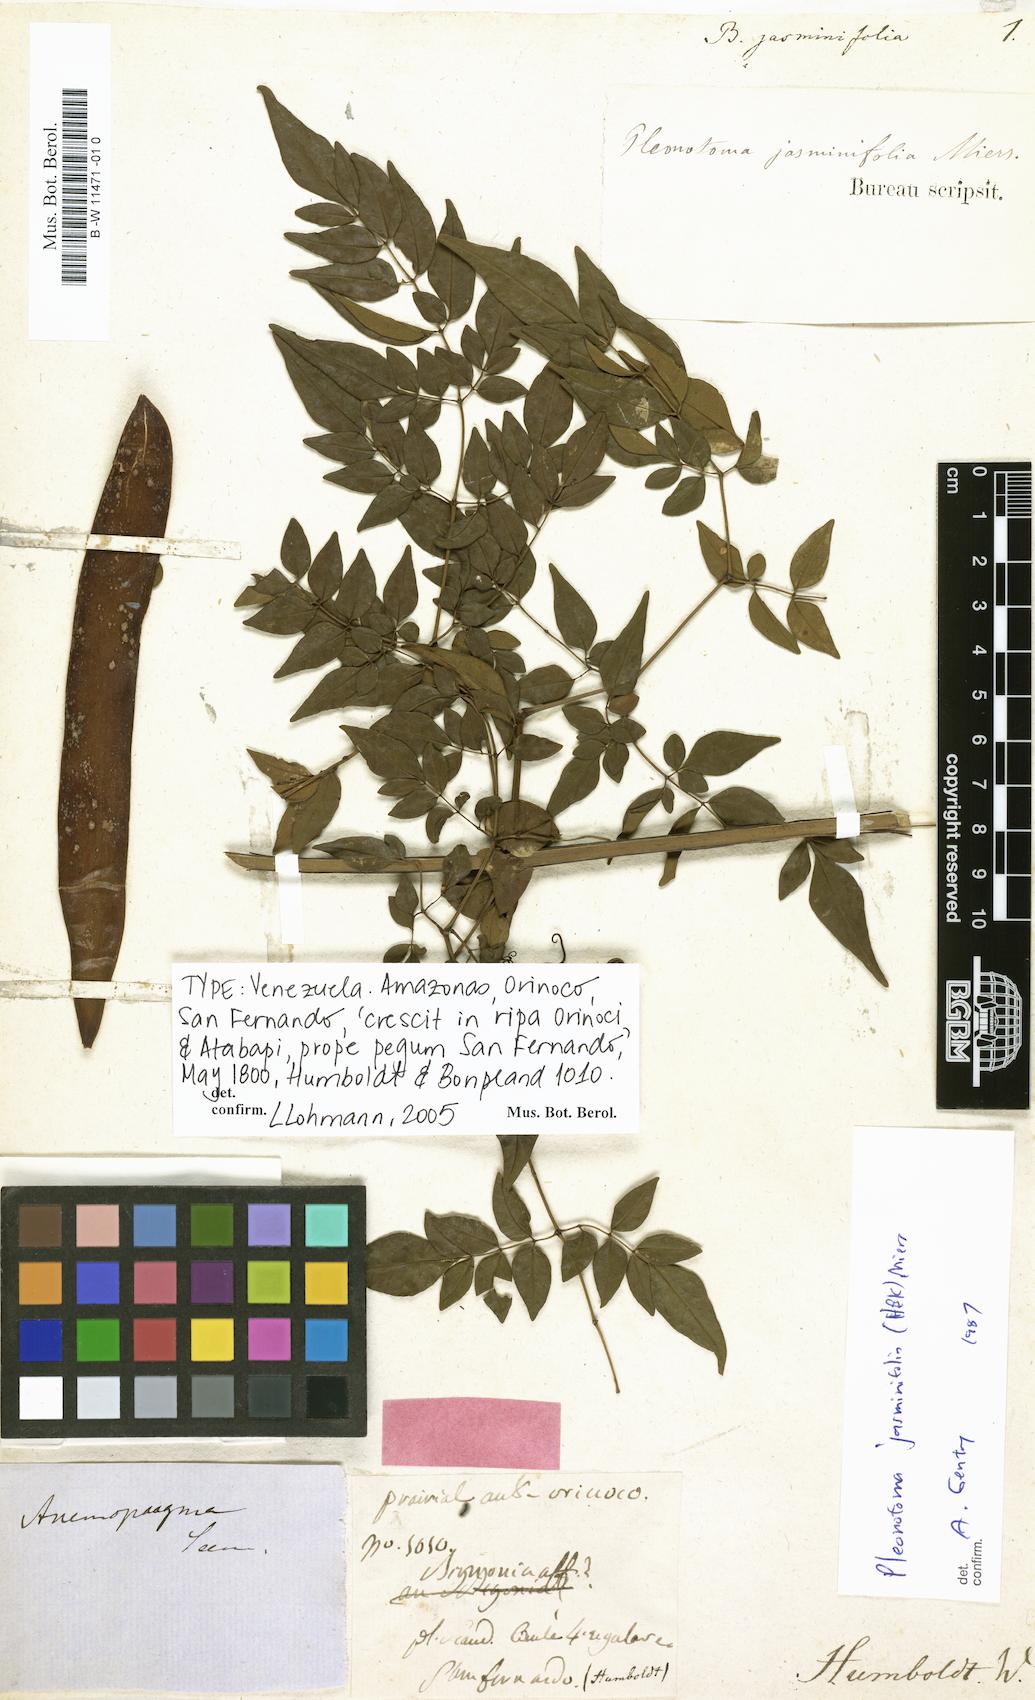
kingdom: Plantae
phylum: Tracheophyta
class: Magnoliopsida
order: Lamiales
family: Bignoniaceae
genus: Pleonotoma
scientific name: Pleonotoma jasminifolia
